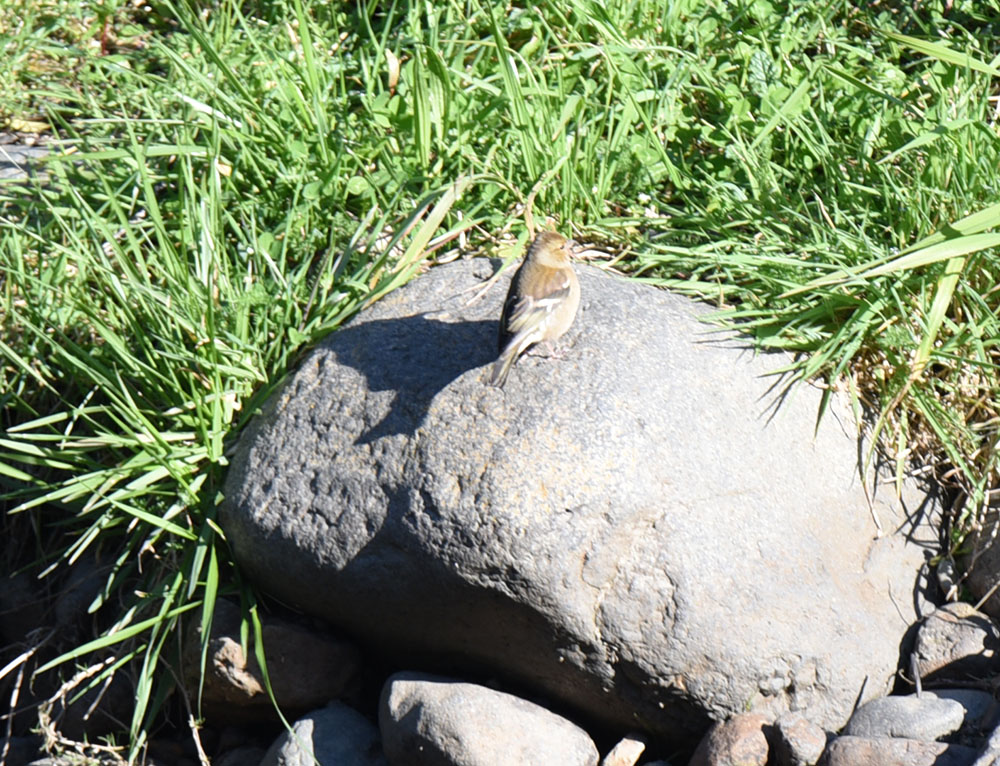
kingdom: Animalia
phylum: Chordata
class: Aves
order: Passeriformes
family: Fringillidae
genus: Fringilla
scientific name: Fringilla coelebs
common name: Common chaffinch
